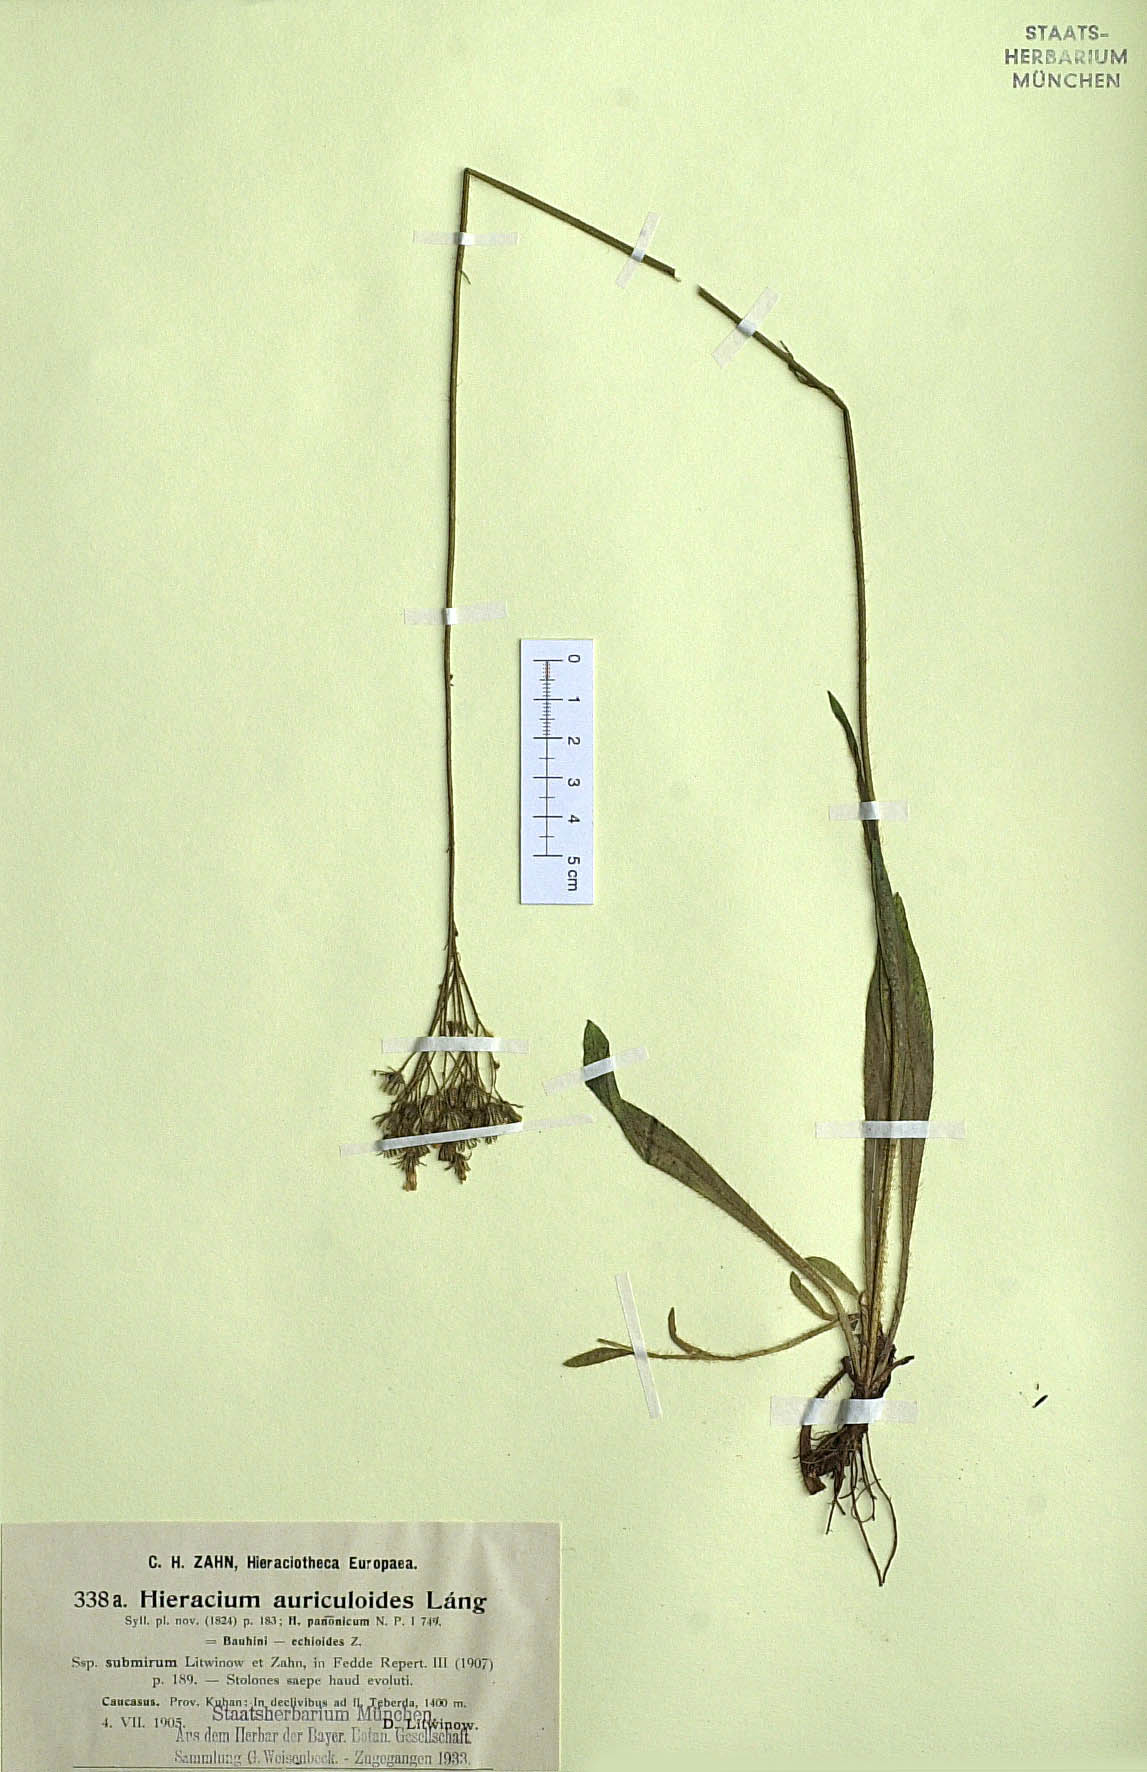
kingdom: Plantae
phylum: Tracheophyta
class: Magnoliopsida
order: Asterales
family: Asteraceae
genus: Pilosella
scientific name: Pilosella auriculoides
